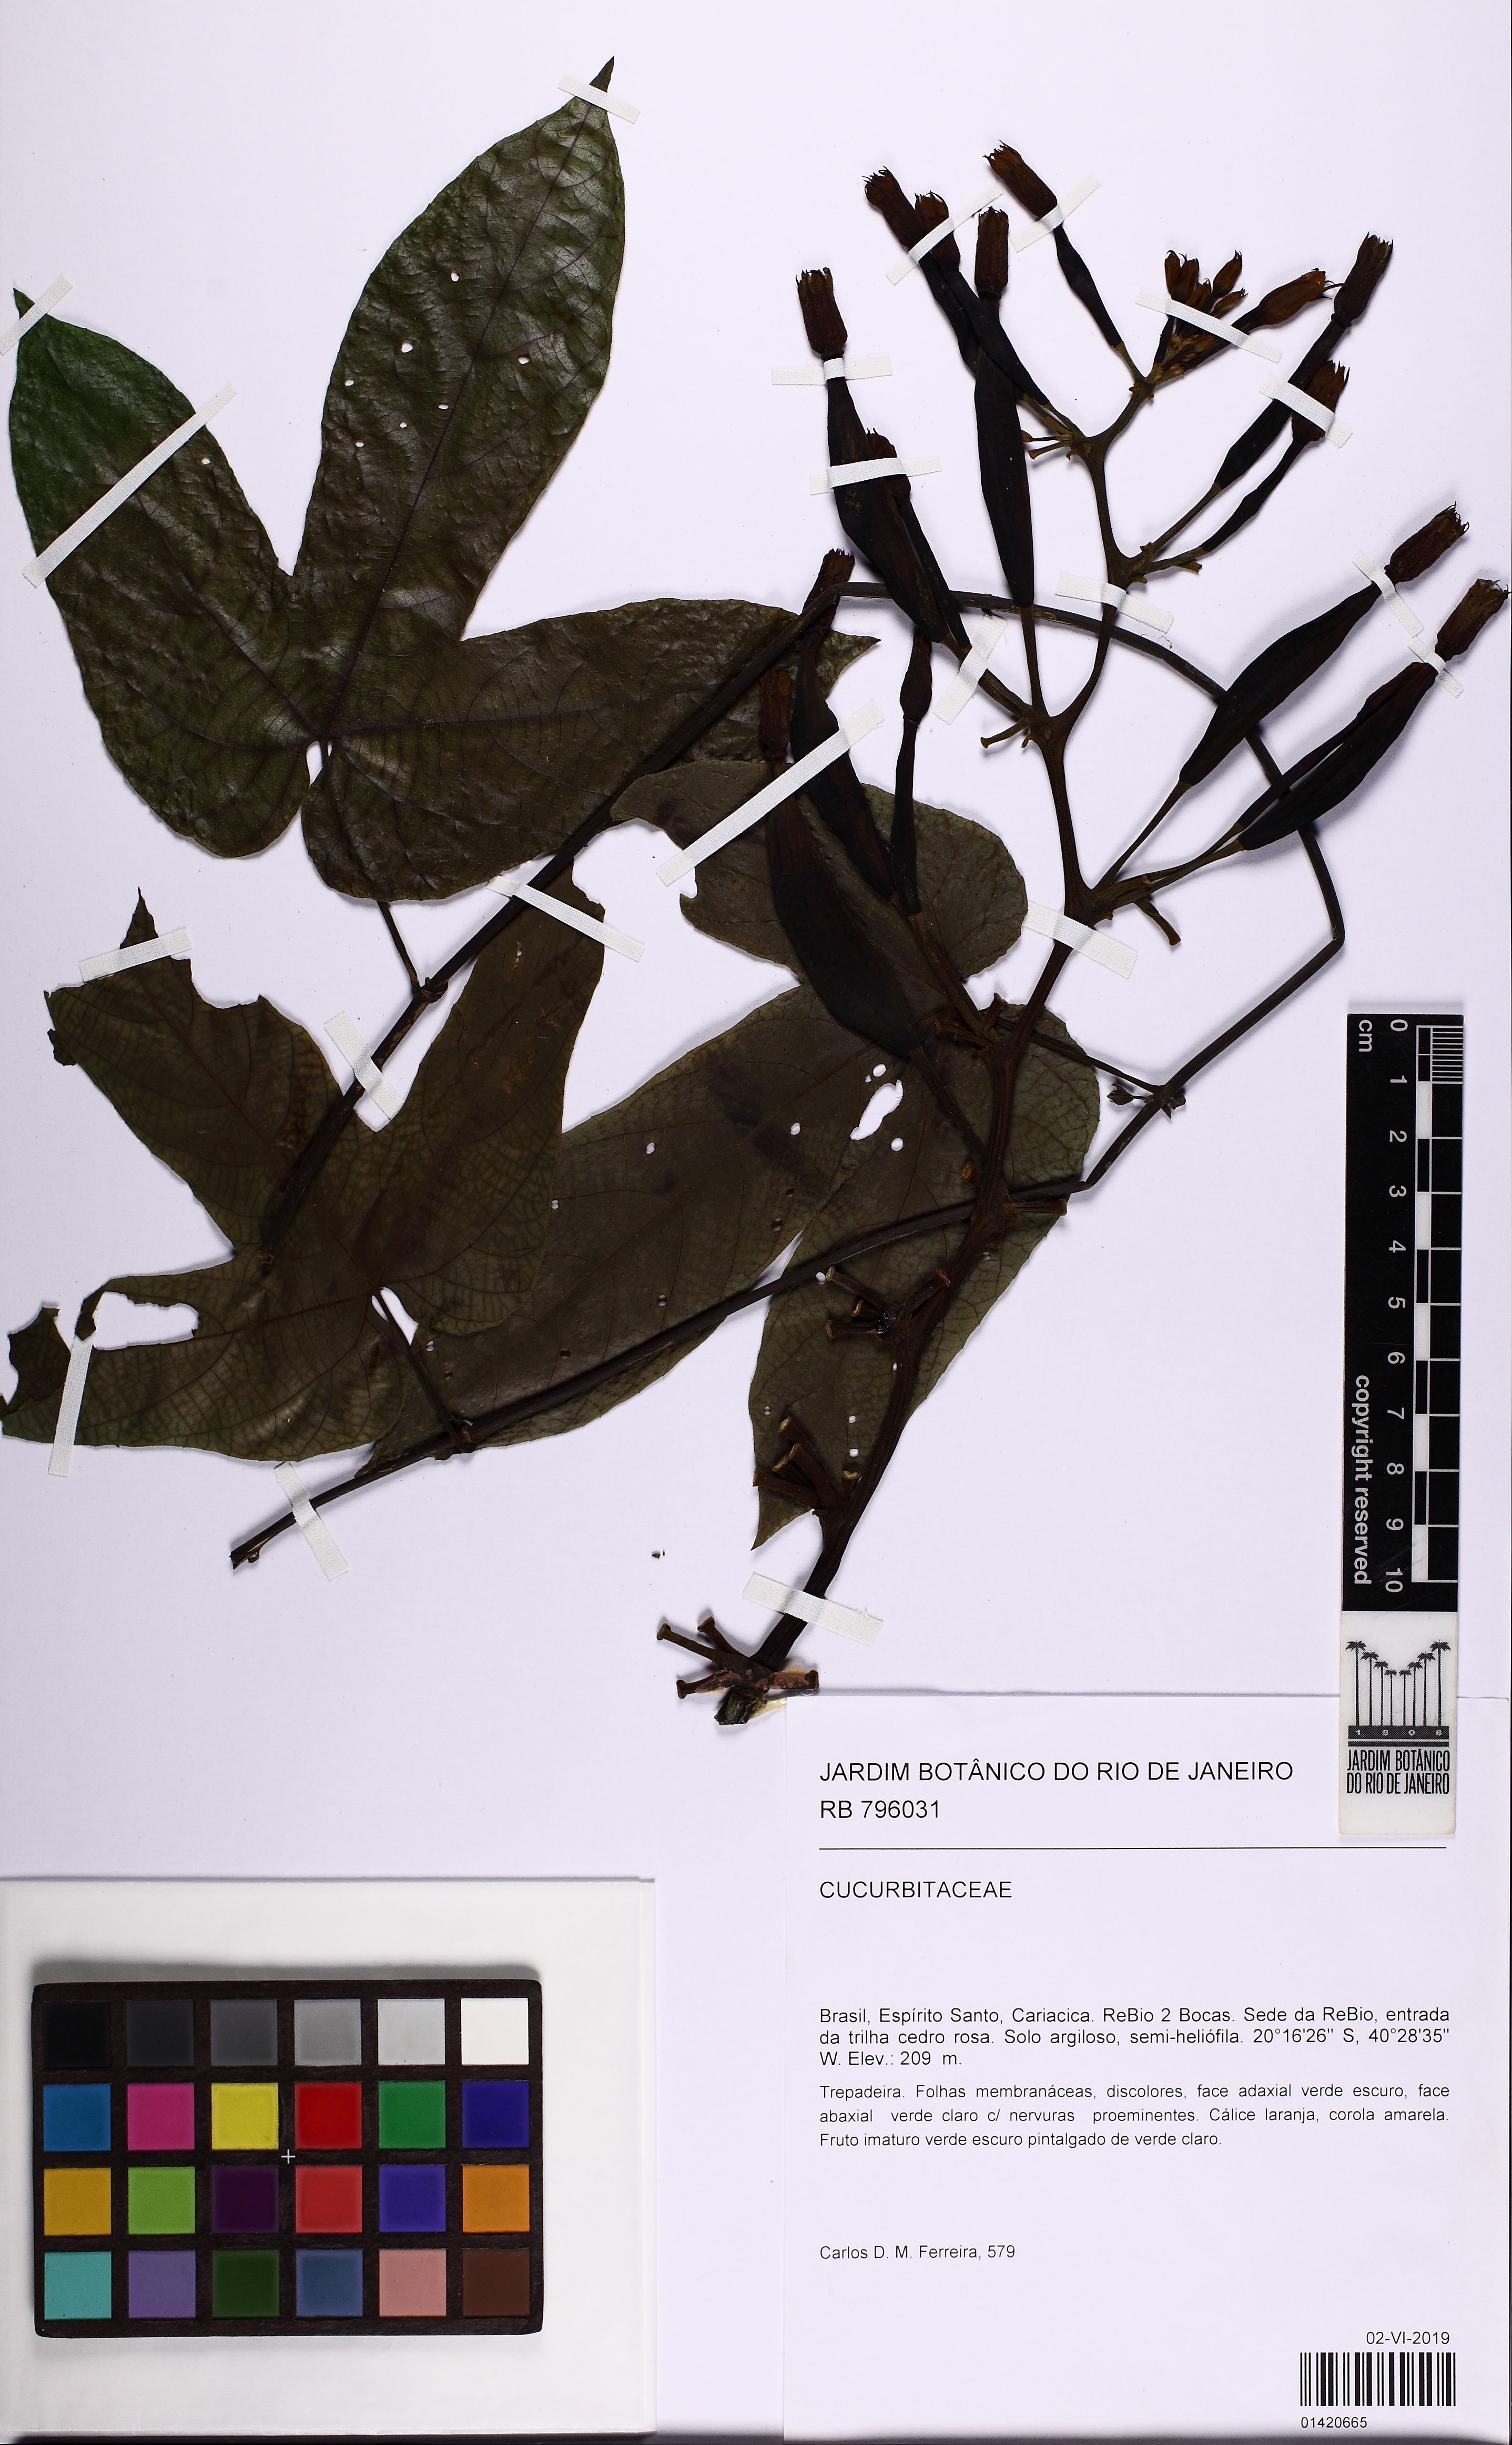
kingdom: Plantae
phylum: Tracheophyta
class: Magnoliopsida
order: Cucurbitales
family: Cucurbitaceae
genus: Gurania
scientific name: Gurania
